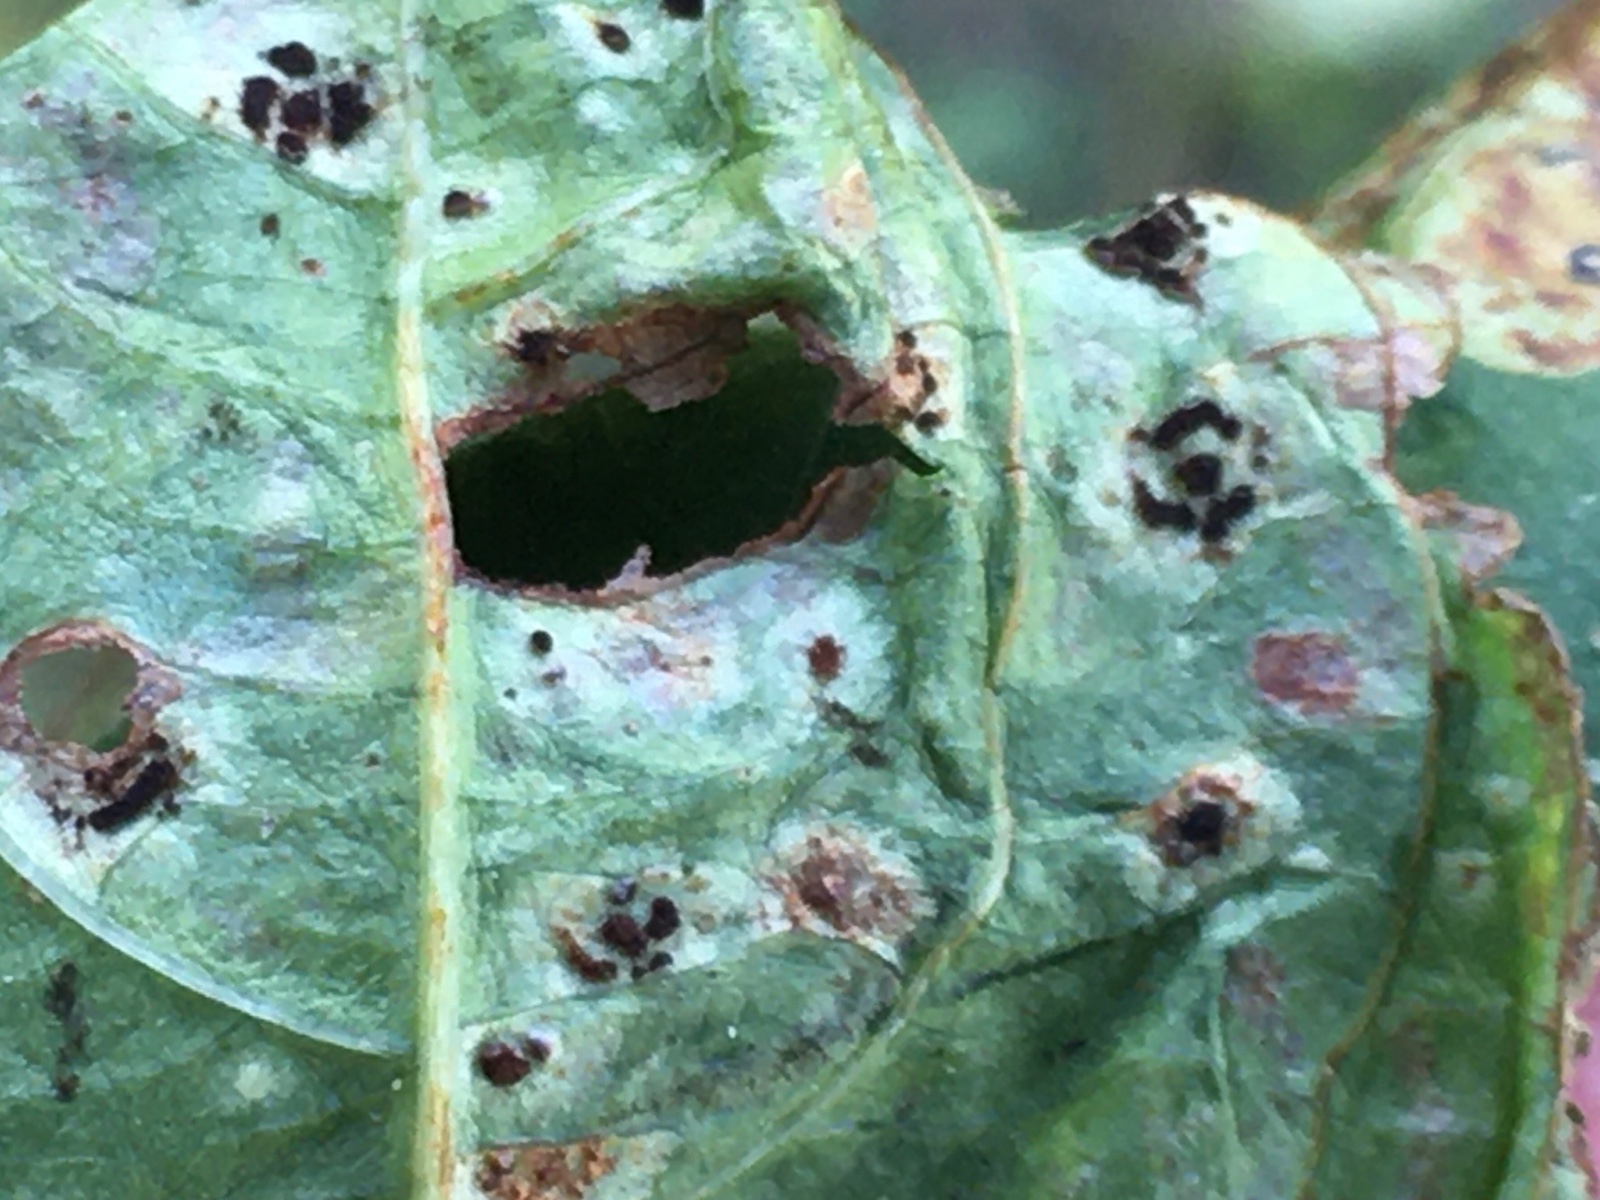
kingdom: Fungi
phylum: Basidiomycota
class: Pucciniomycetes
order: Pucciniales
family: Pucciniaceae
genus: Puccinia
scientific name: Puccinia komarovii
